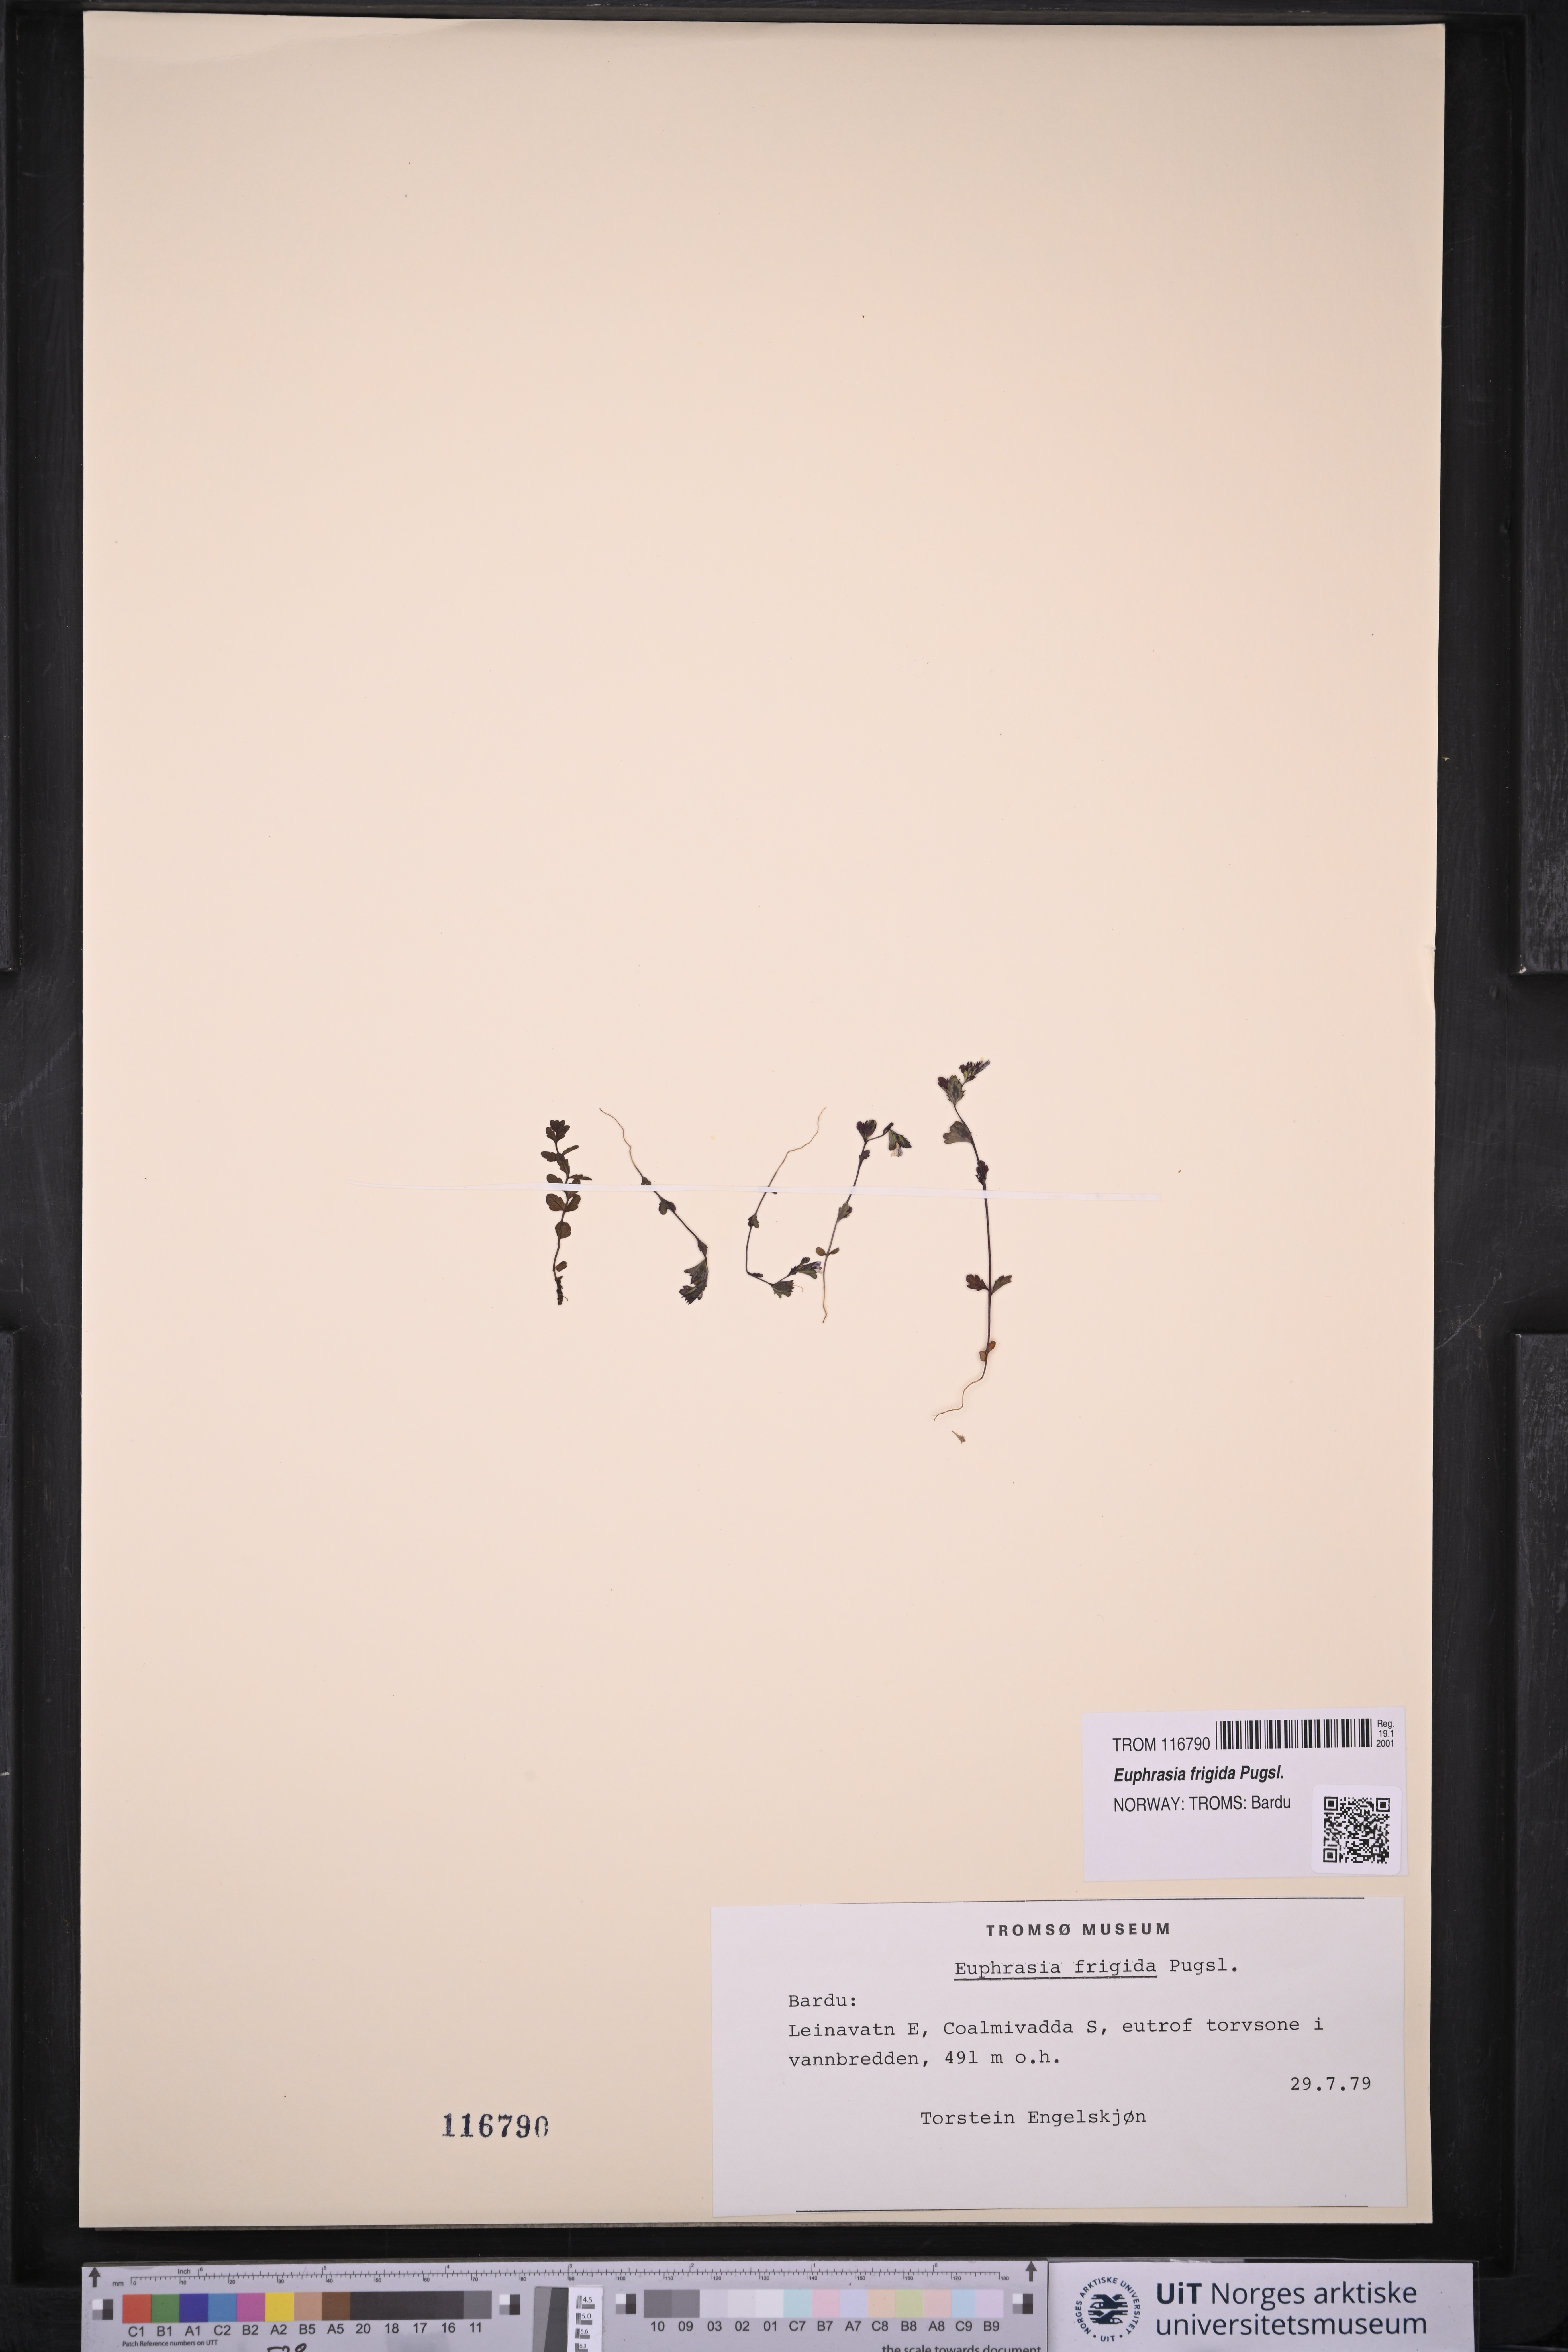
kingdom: Plantae
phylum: Tracheophyta
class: Magnoliopsida
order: Lamiales
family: Orobanchaceae
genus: Euphrasia
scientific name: Euphrasia frigida
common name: An eyebright
